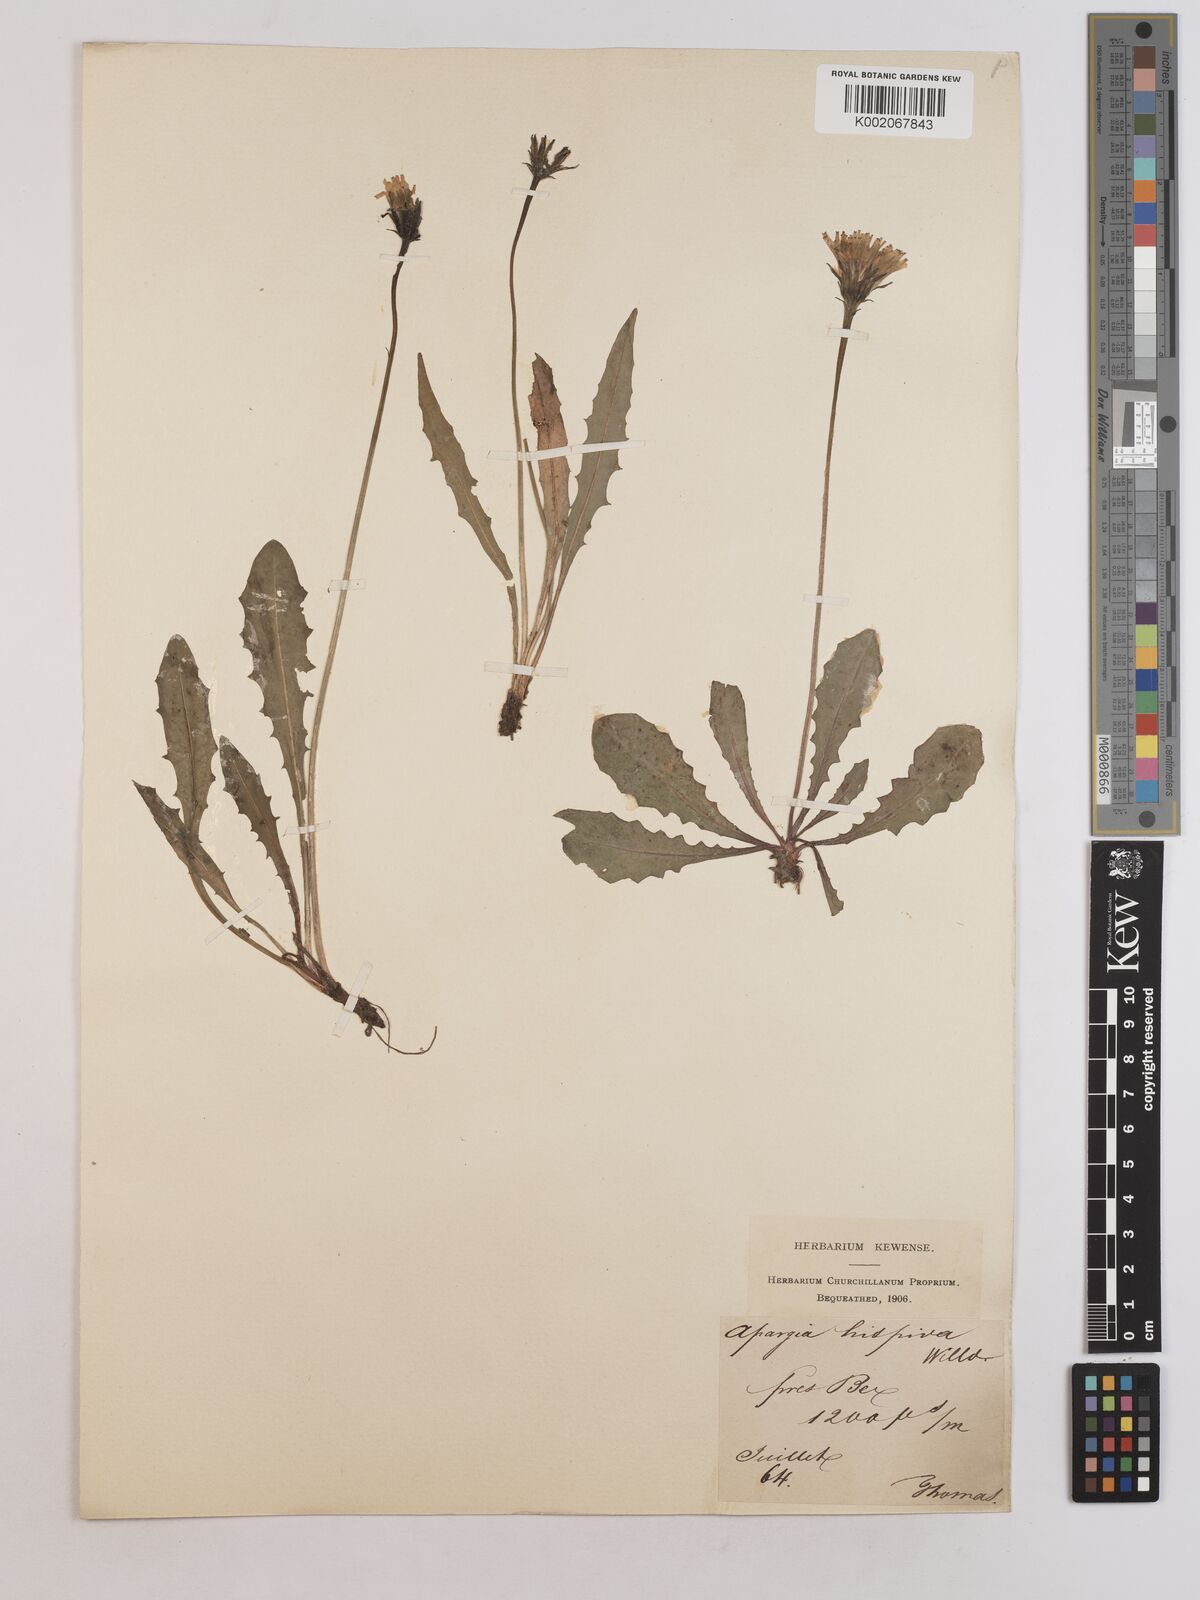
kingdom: Plantae
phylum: Tracheophyta
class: Magnoliopsida
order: Asterales
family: Asteraceae
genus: Leontodon
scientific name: Leontodon
